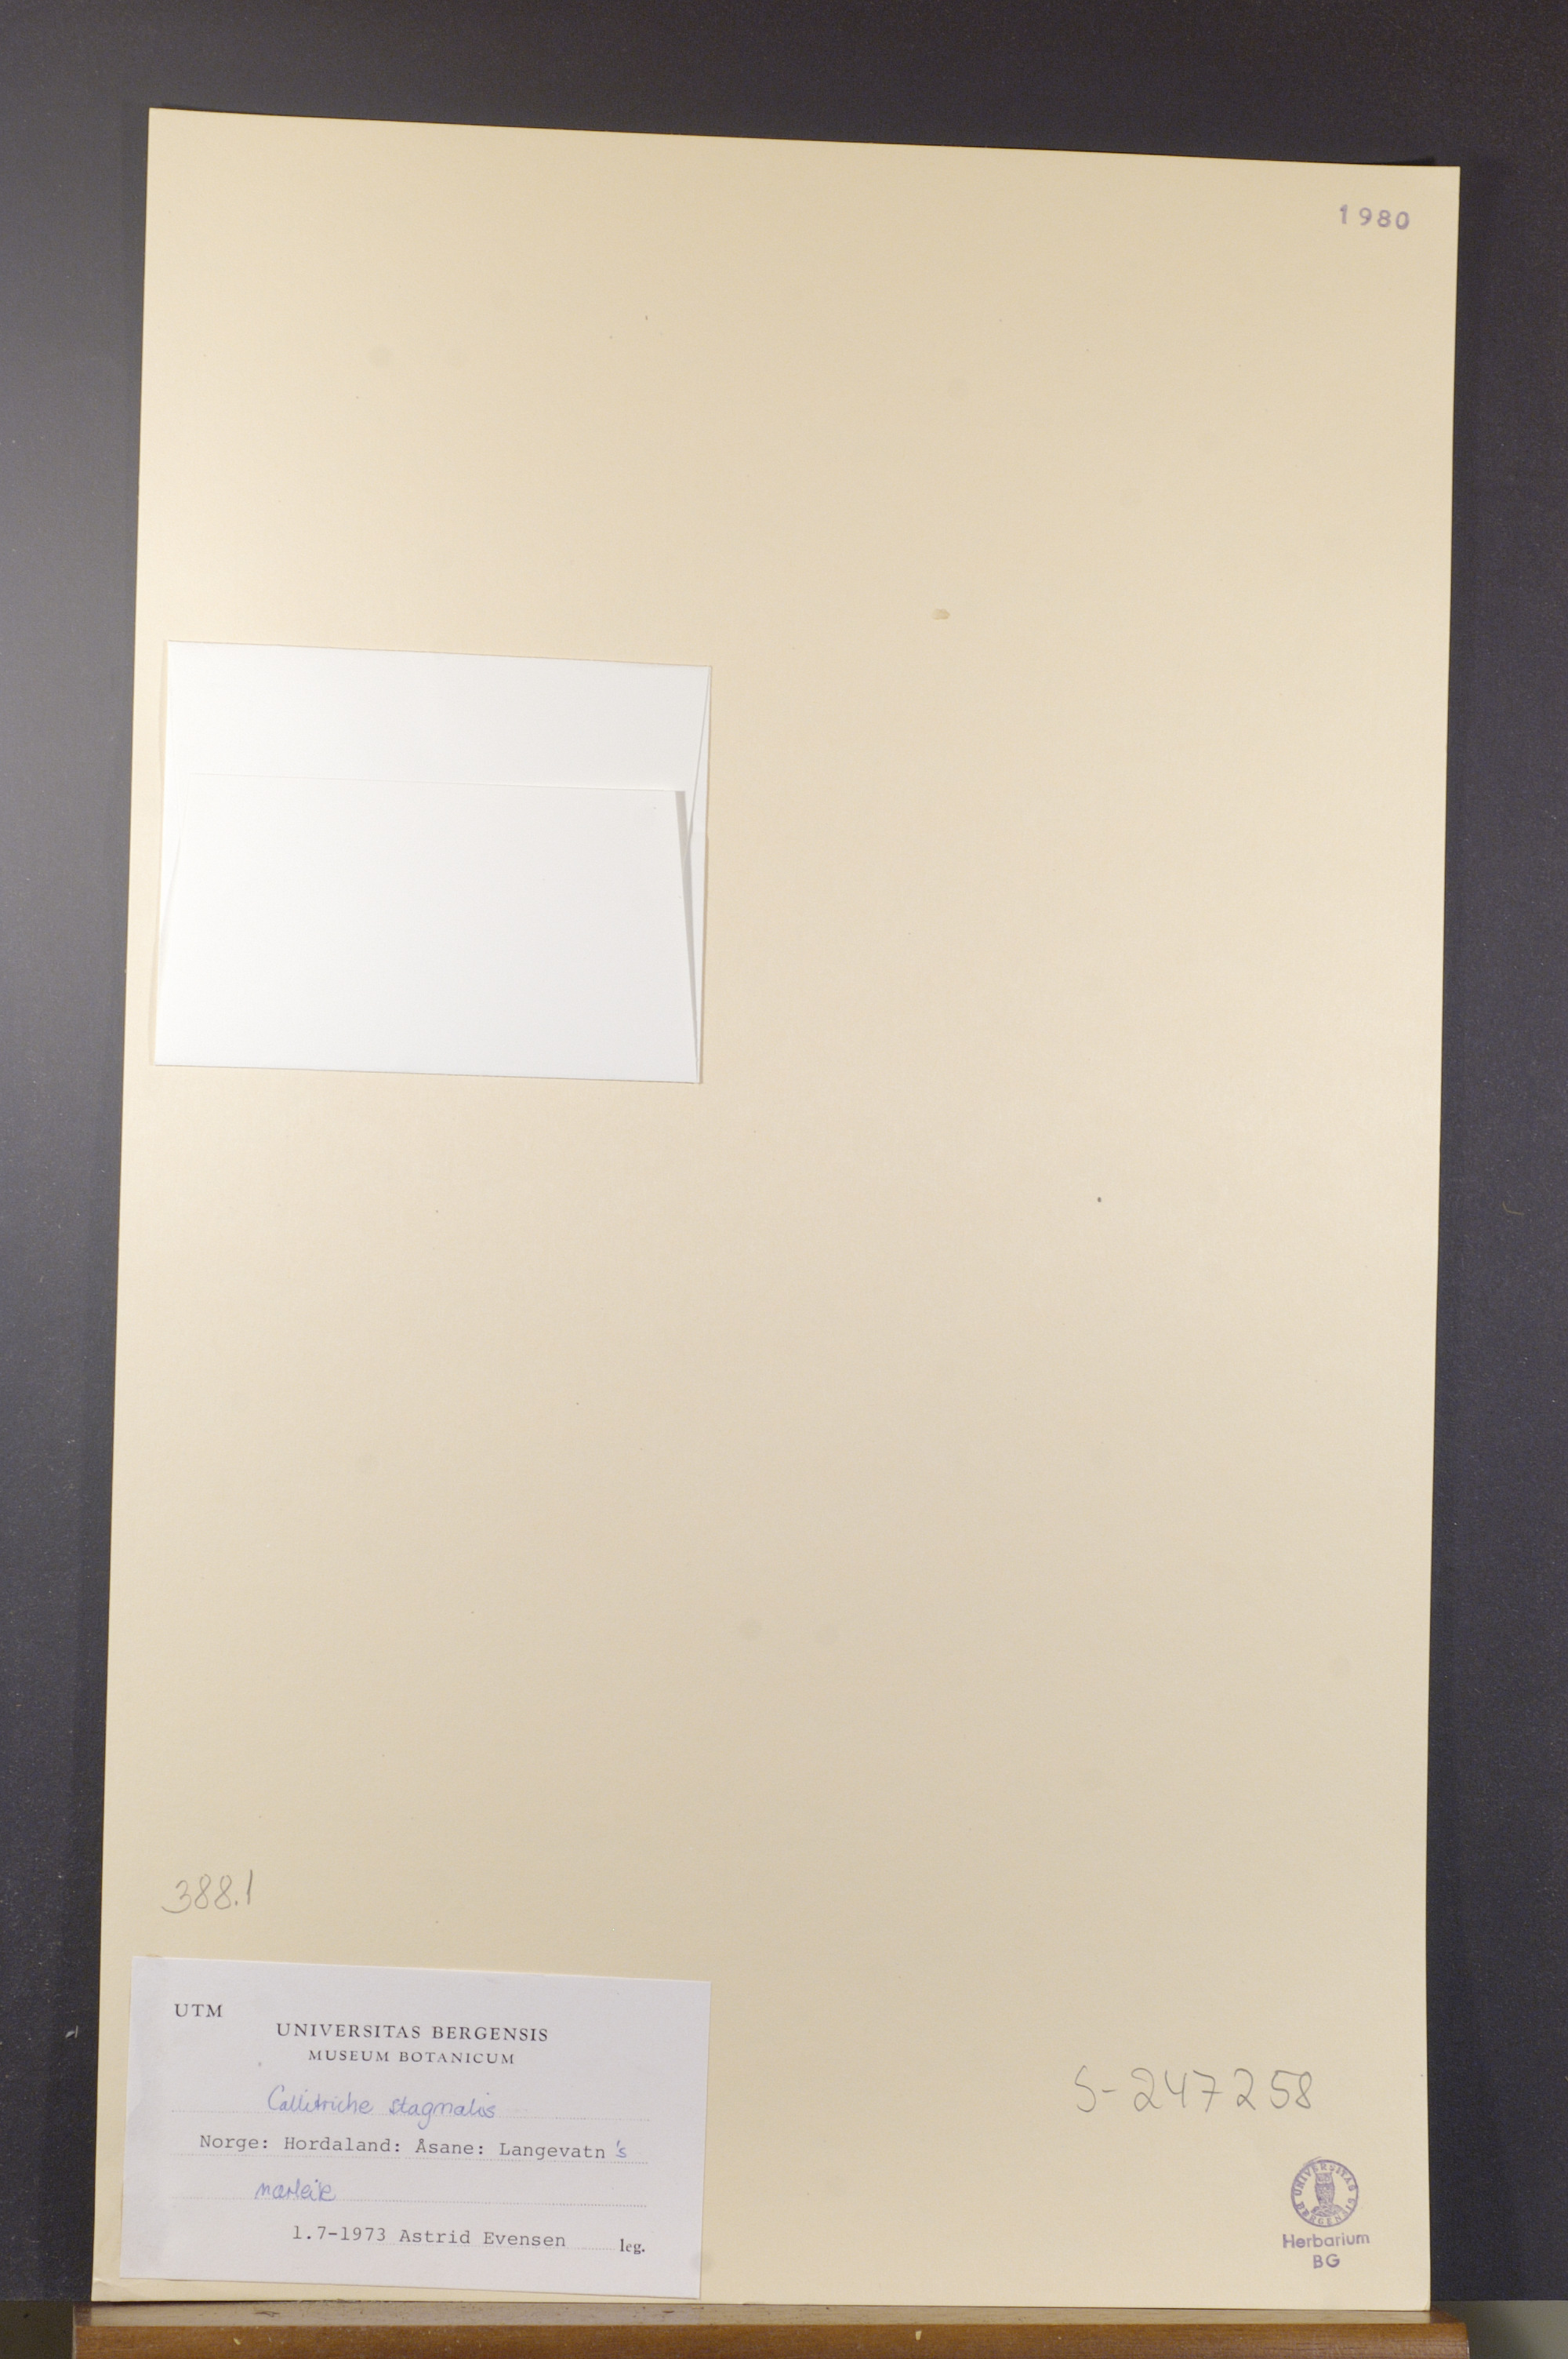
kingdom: Plantae
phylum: Tracheophyta
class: Magnoliopsida
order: Lamiales
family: Plantaginaceae
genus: Callitriche
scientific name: Callitriche stagnalis
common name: Common water-starwort
